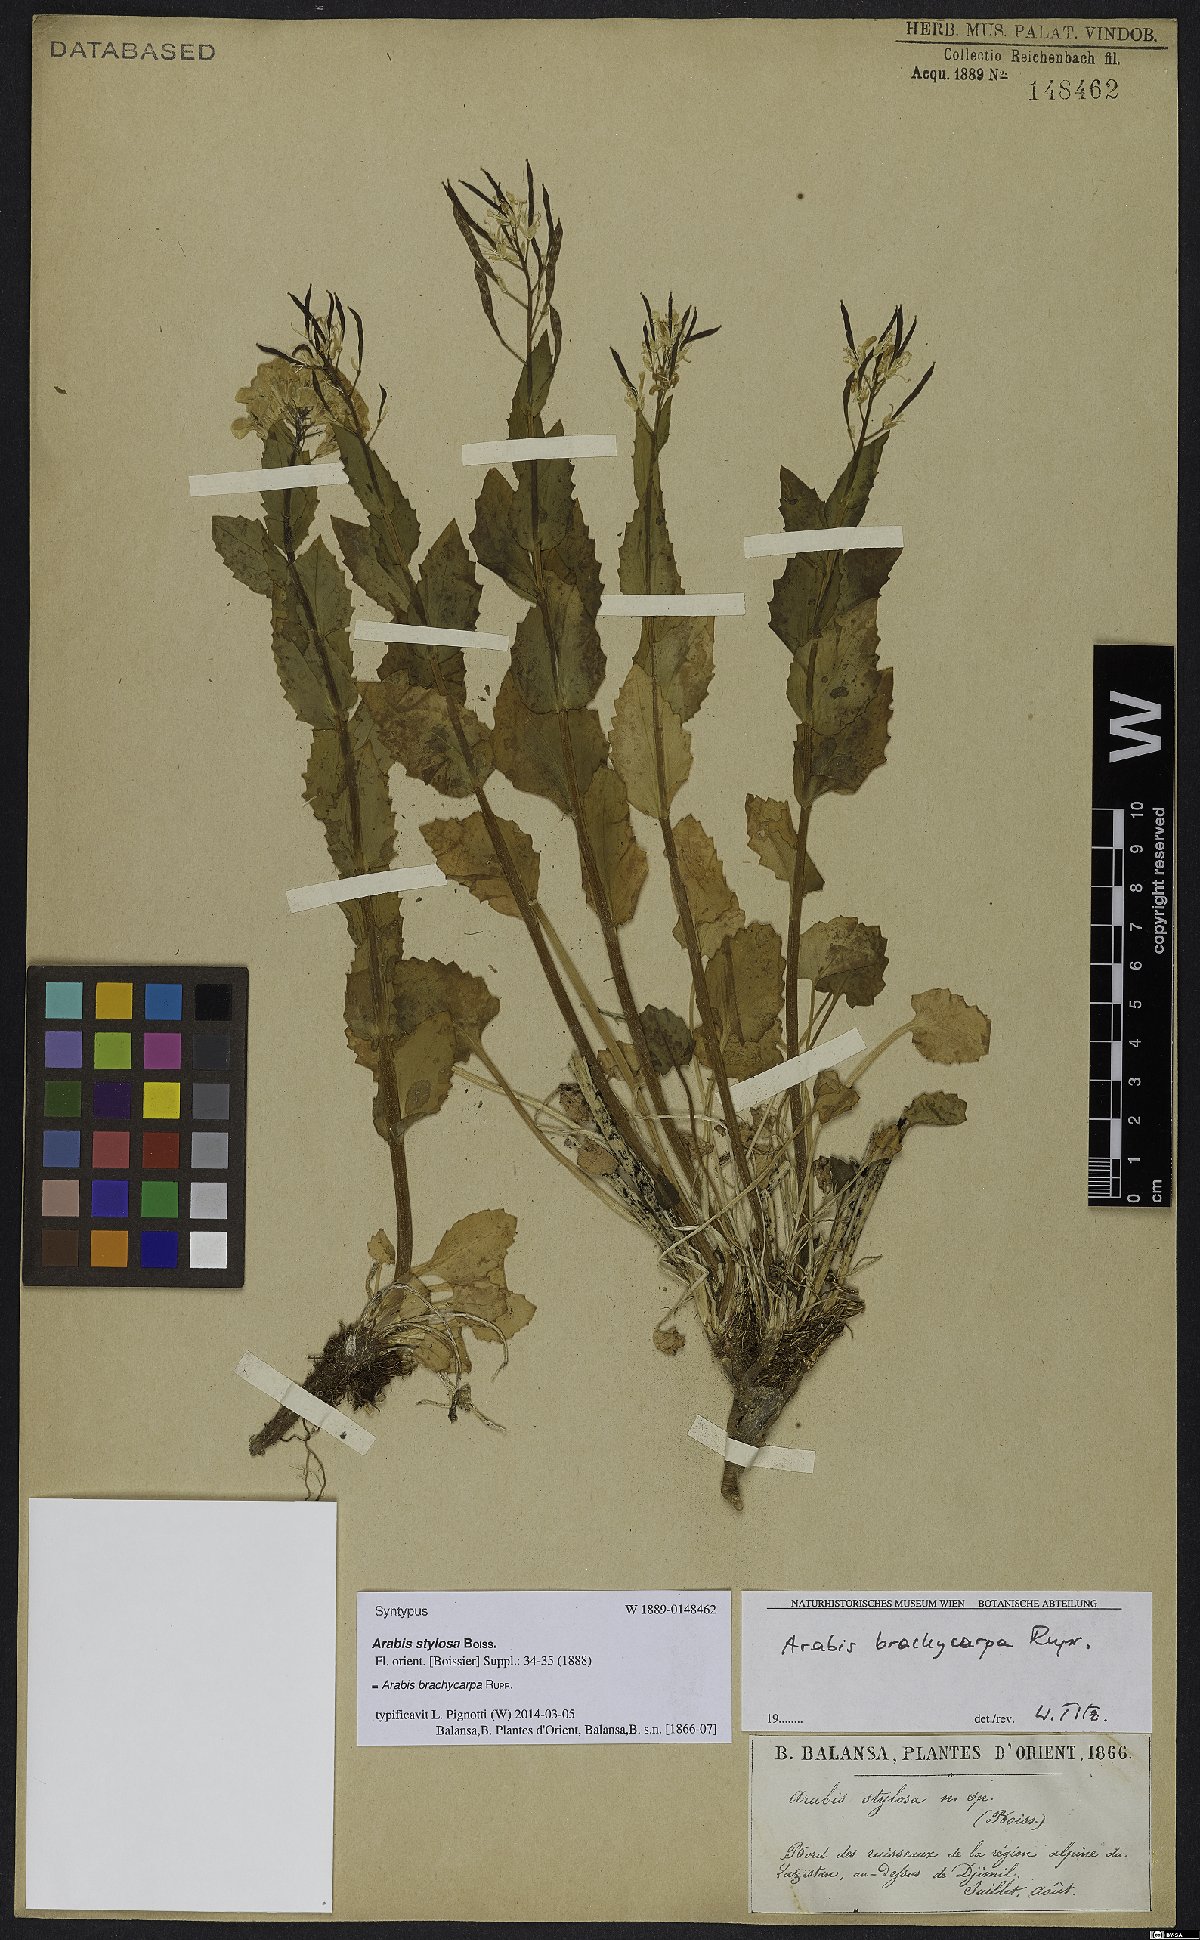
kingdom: Plantae
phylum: Tracheophyta
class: Magnoliopsida
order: Brassicales
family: Brassicaceae
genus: Arabis
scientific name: Arabis brachycarpa
